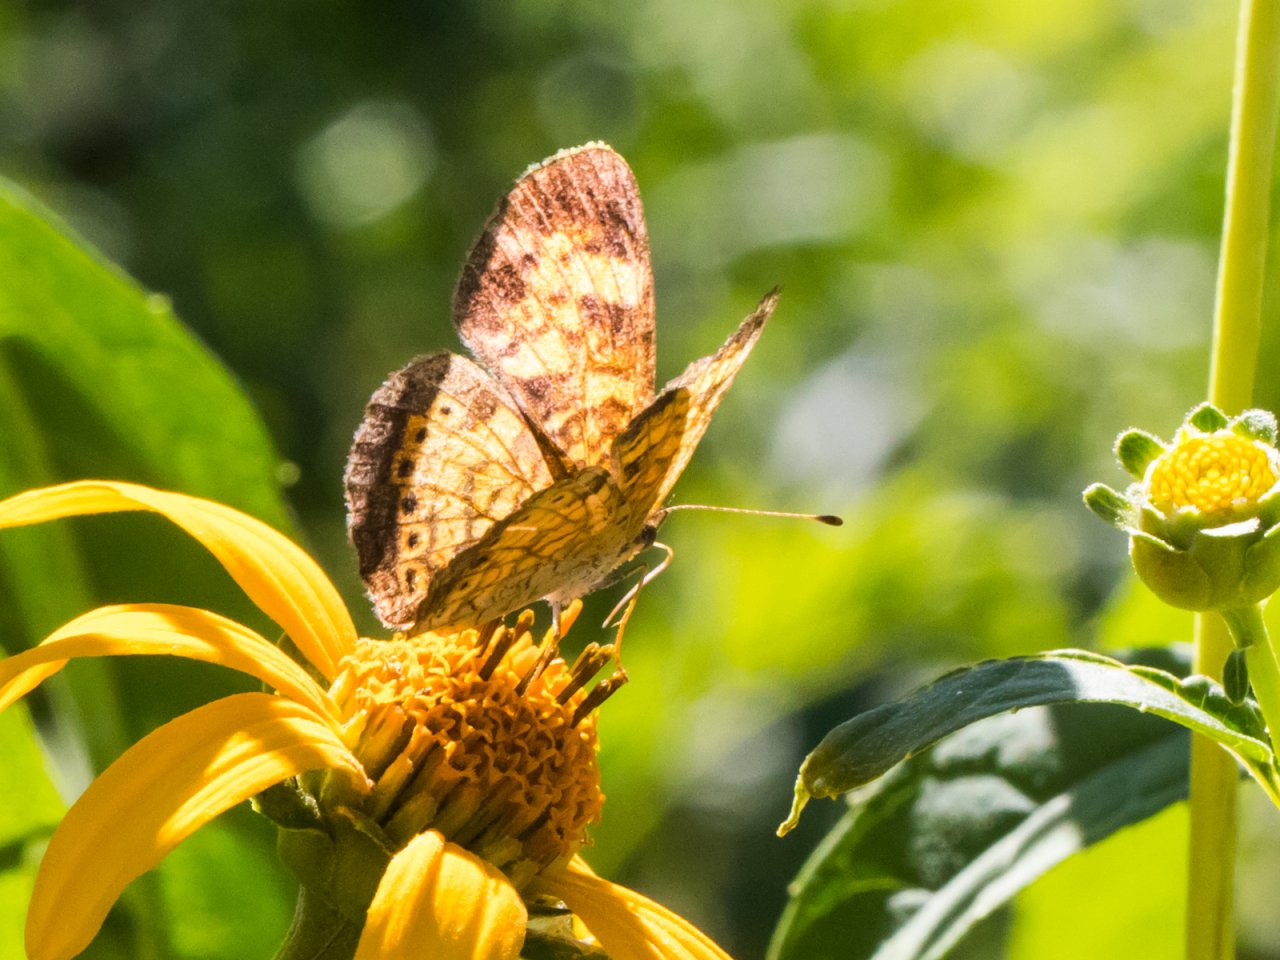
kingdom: Animalia
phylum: Arthropoda
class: Insecta
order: Lepidoptera
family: Nymphalidae
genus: Phyciodes
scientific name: Phyciodes tharos
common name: Pearl Crescent
